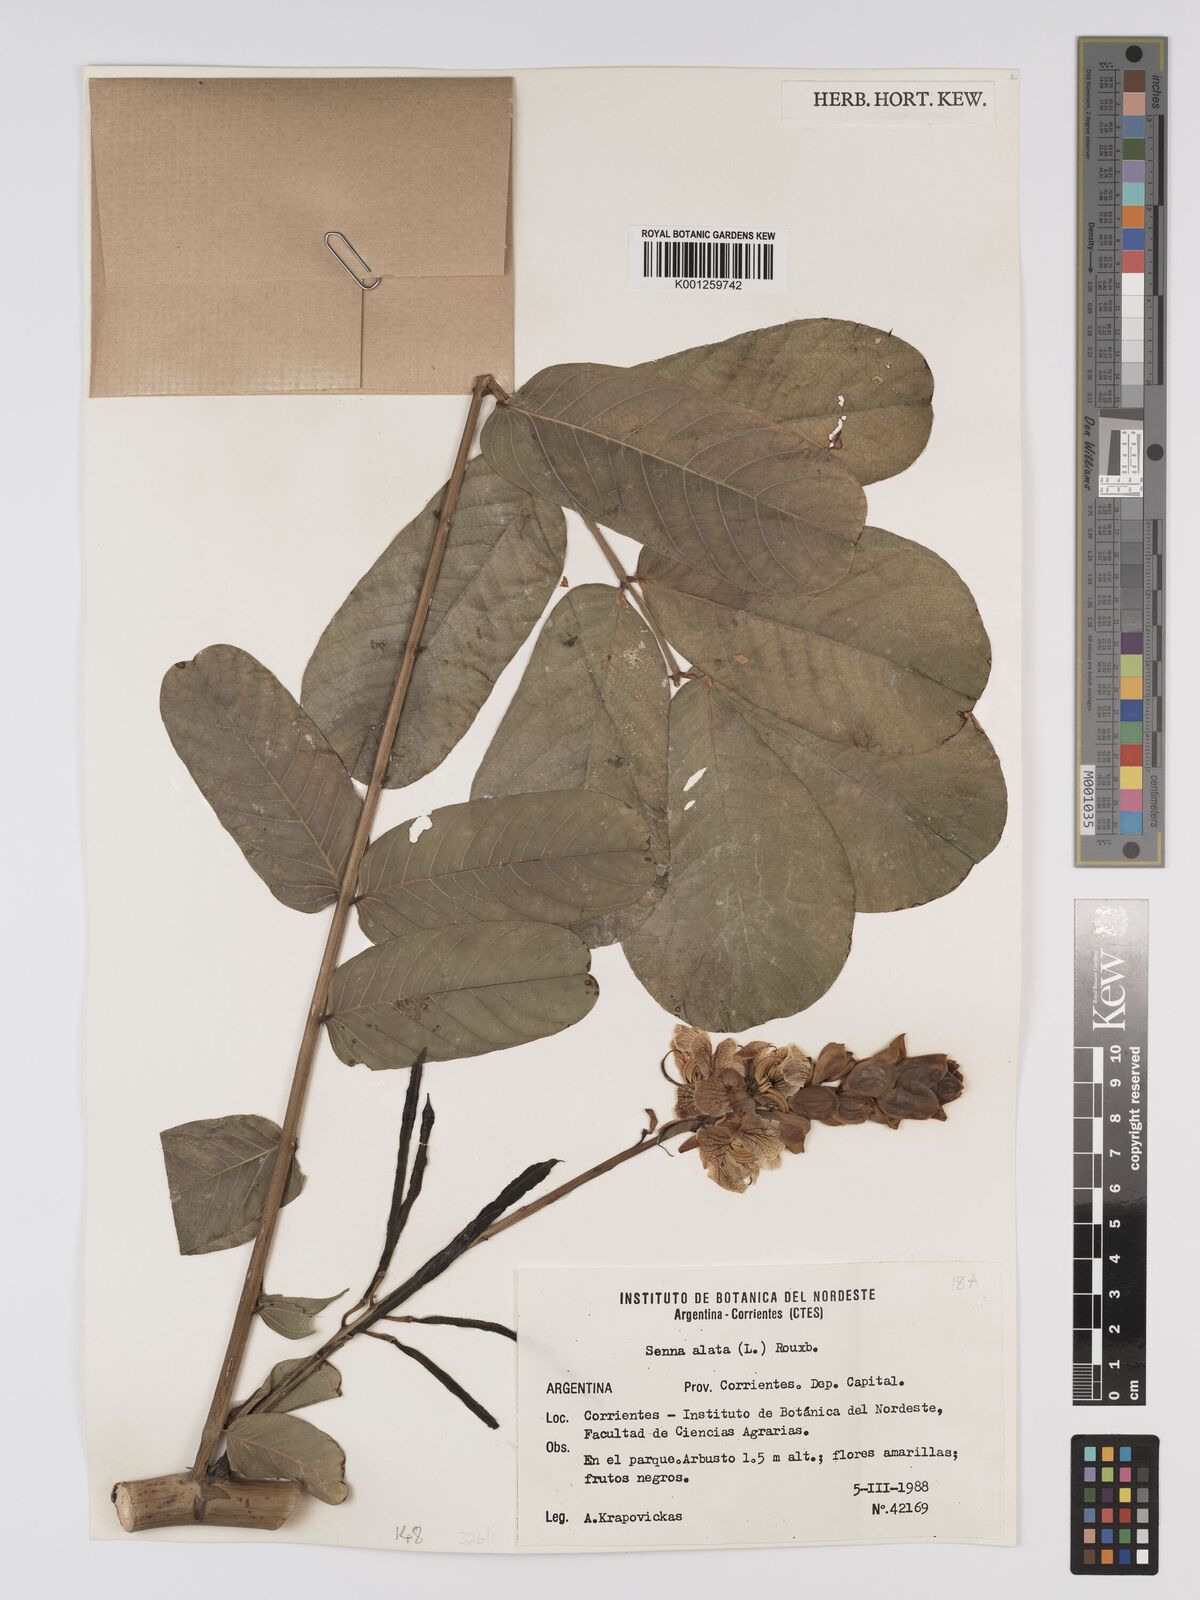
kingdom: Plantae
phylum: Tracheophyta
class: Magnoliopsida
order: Fabales
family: Fabaceae
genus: Senna
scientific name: Senna alata
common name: Emperor's candlesticks
